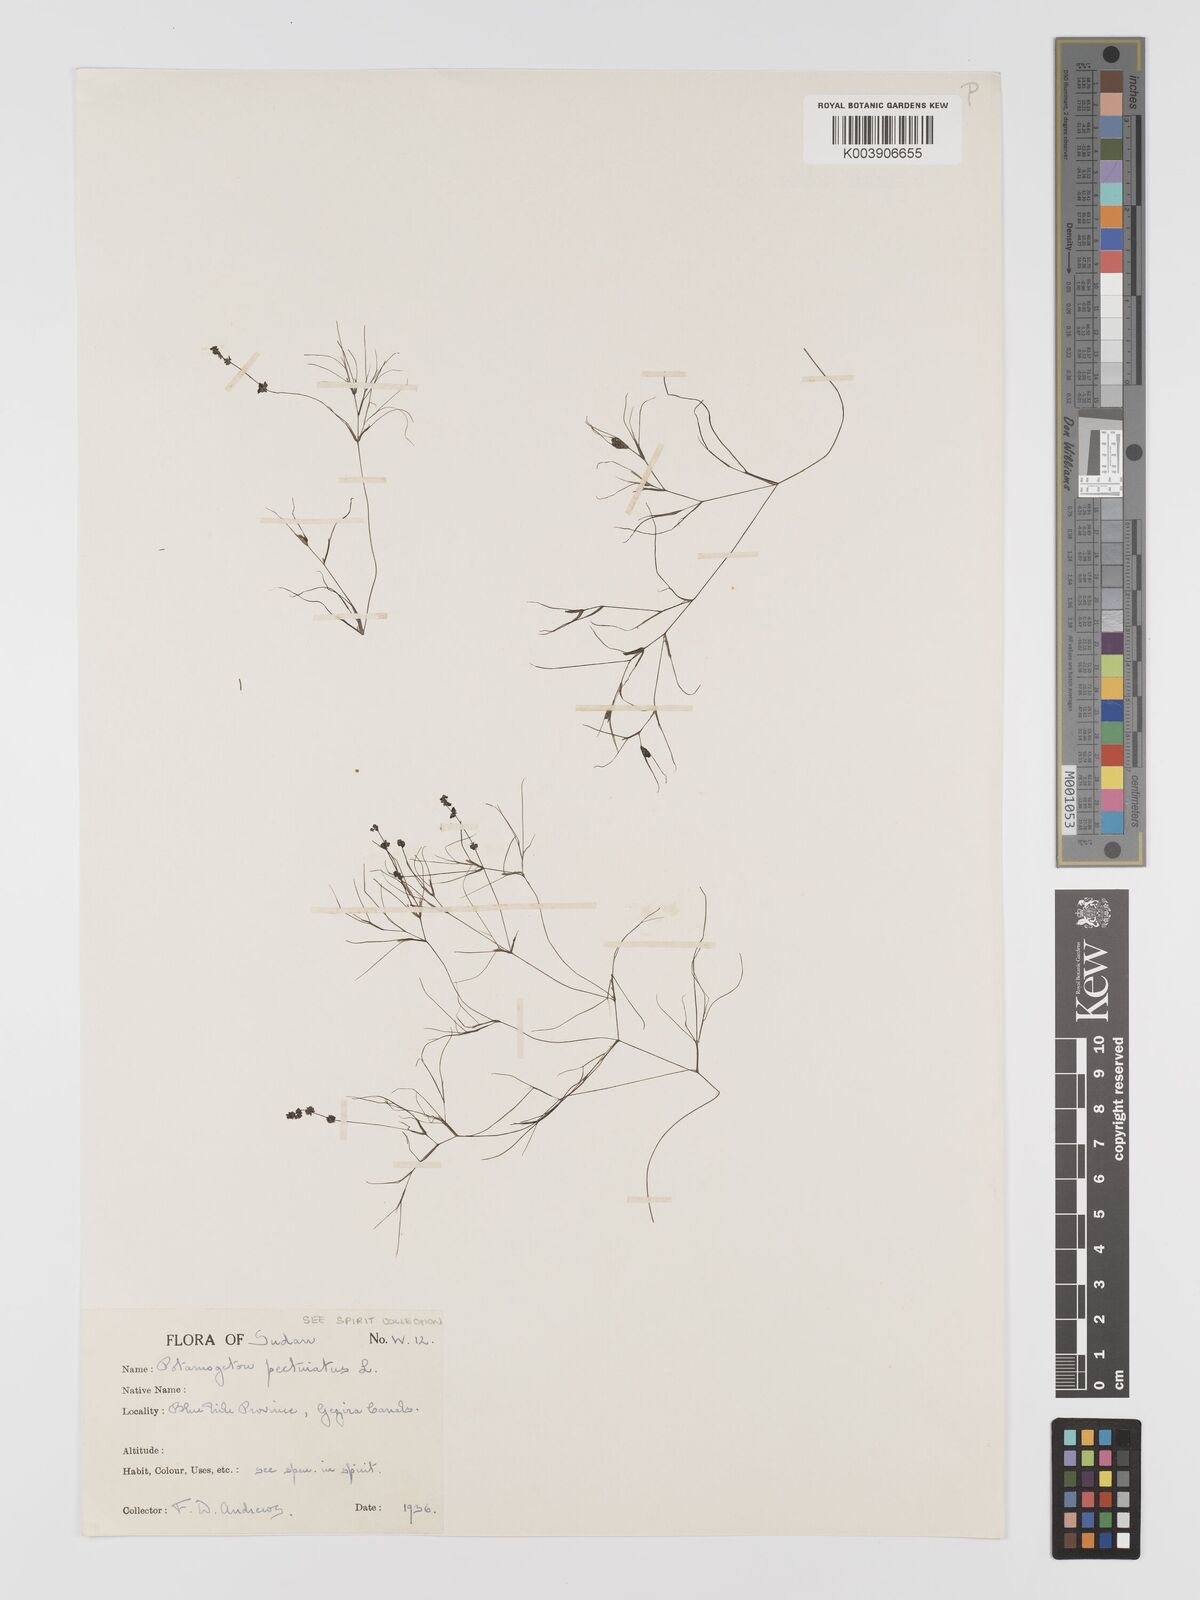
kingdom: Plantae
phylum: Tracheophyta
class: Liliopsida
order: Alismatales
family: Potamogetonaceae
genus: Stuckenia
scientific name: Stuckenia pectinata
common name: Sago pondweed
